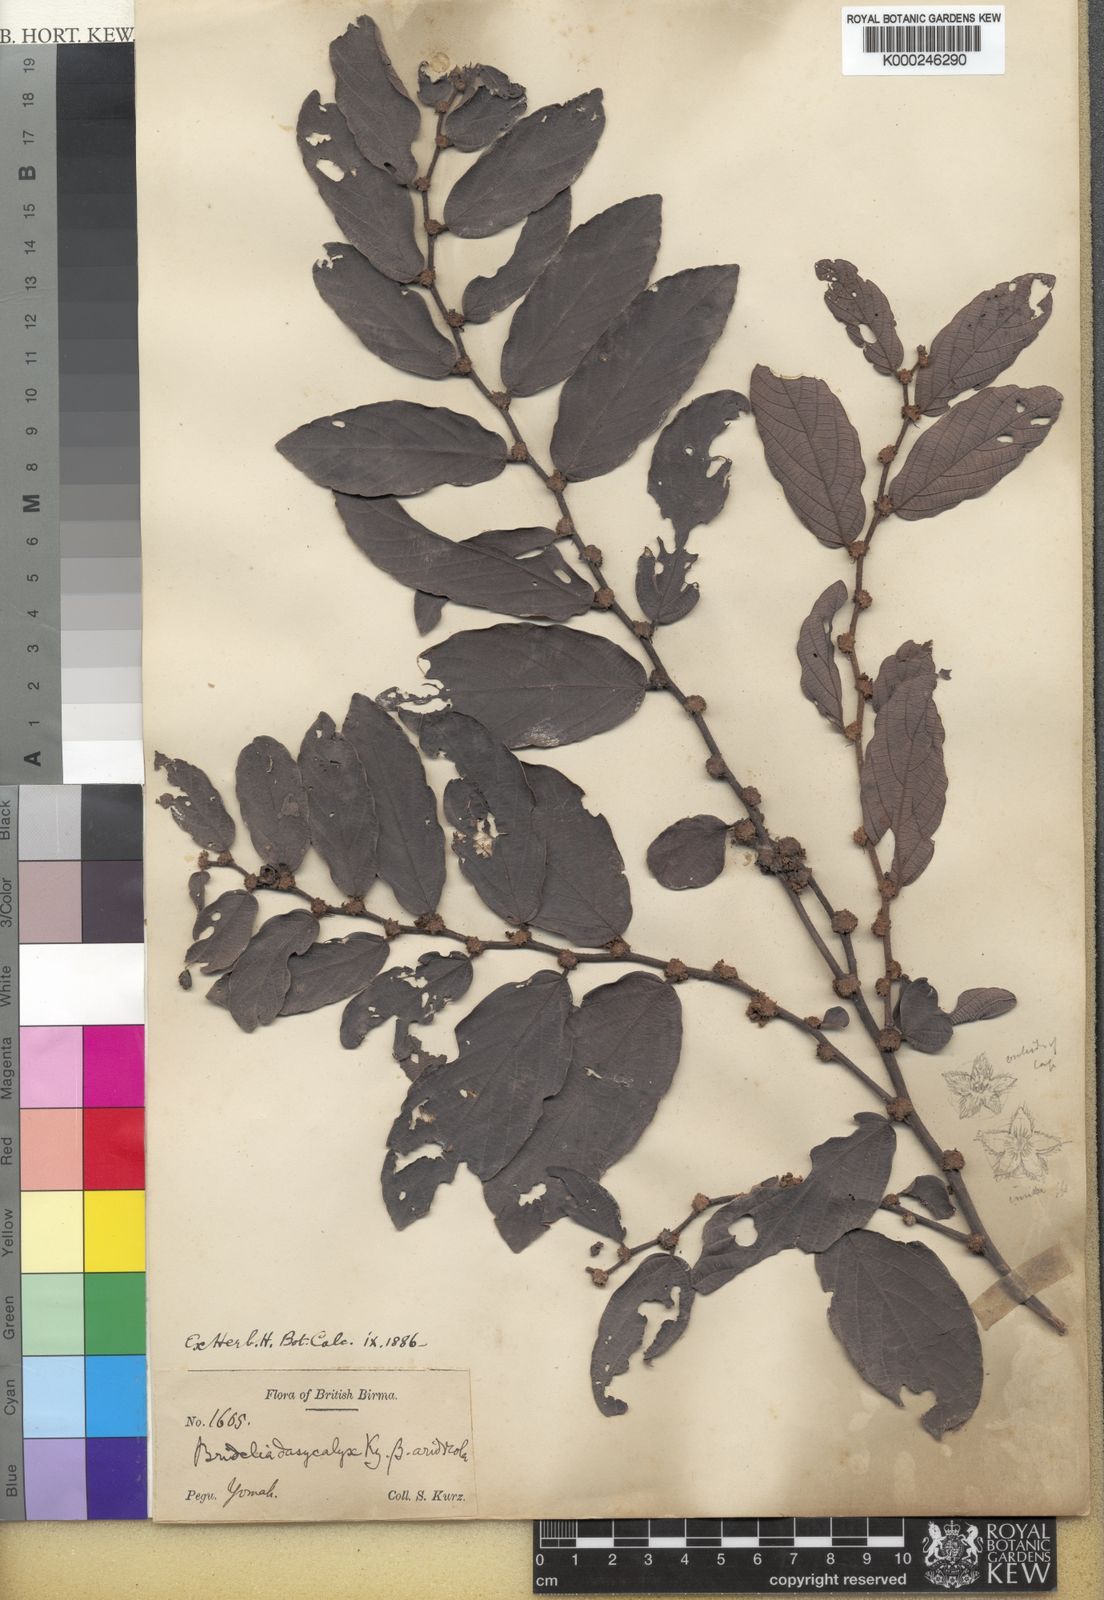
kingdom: Plantae
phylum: Tracheophyta
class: Magnoliopsida
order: Malpighiales
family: Phyllanthaceae
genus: Bridelia
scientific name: Bridelia stipularis
